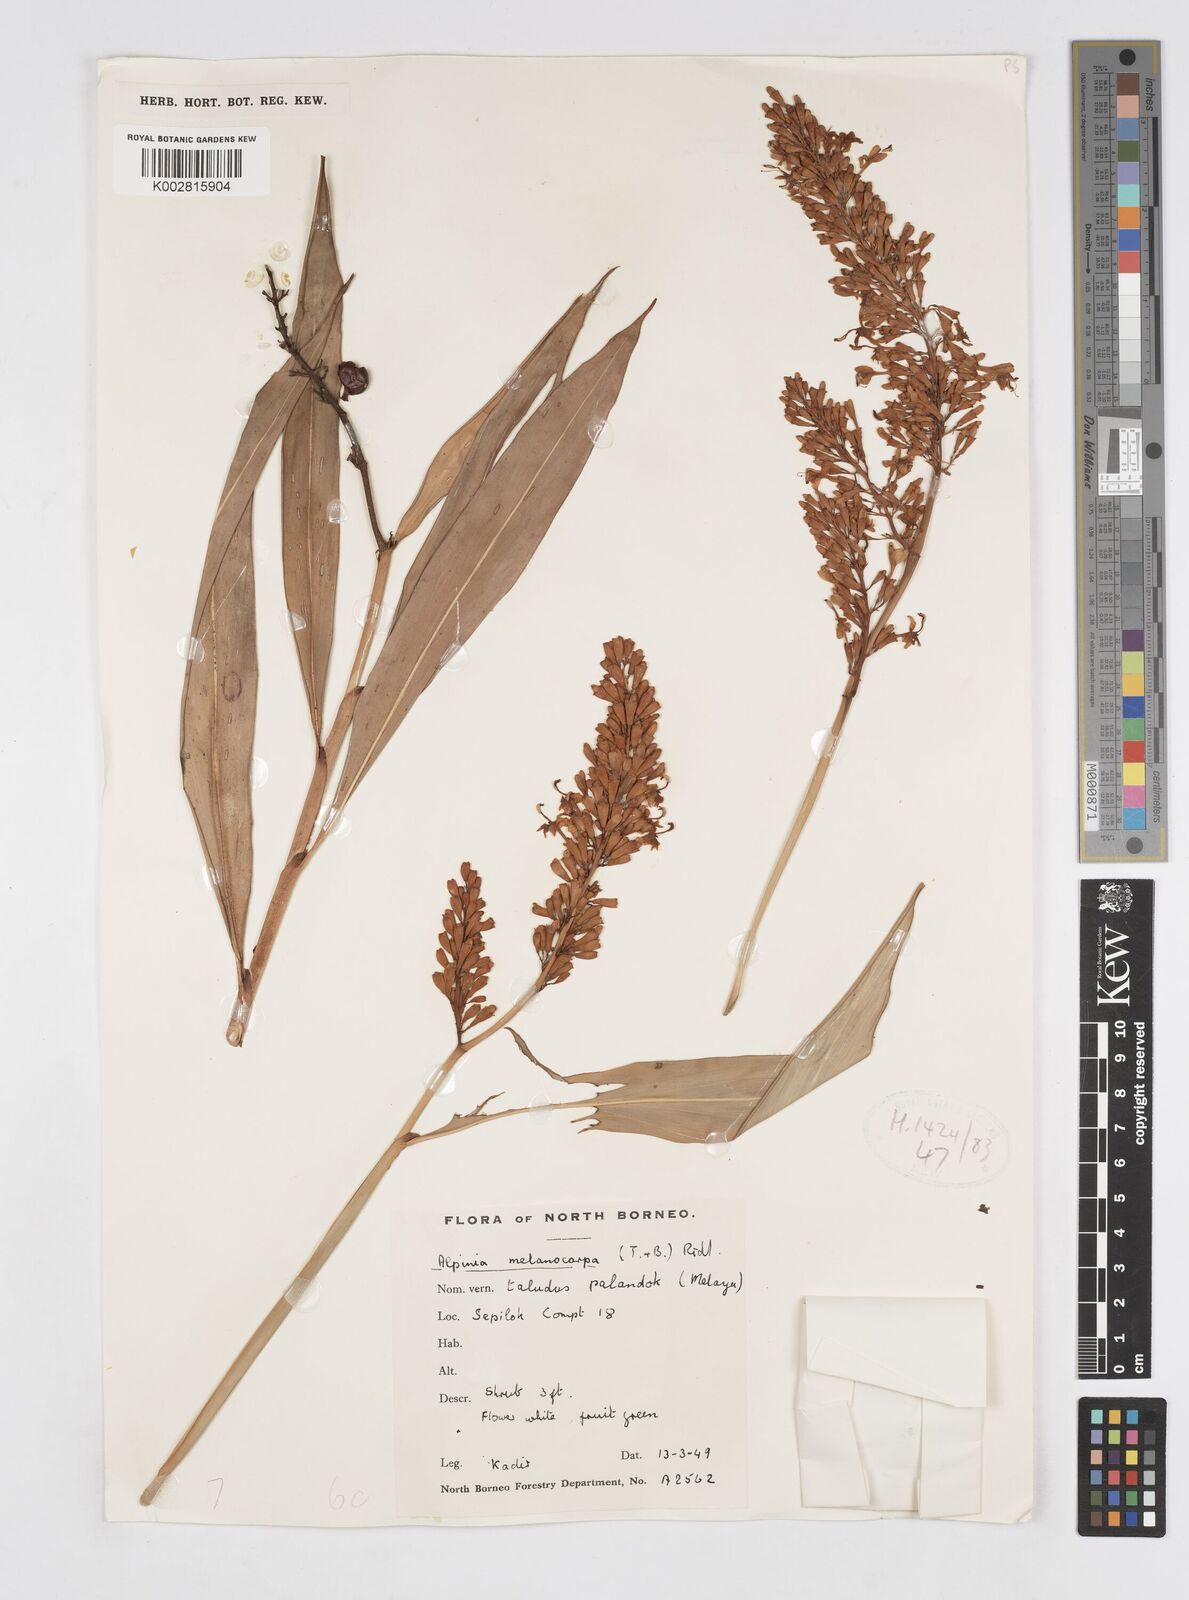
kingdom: Plantae
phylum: Tracheophyta
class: Liliopsida
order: Zingiberales
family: Zingiberaceae
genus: Alpinia
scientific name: Alpinia aquatica
